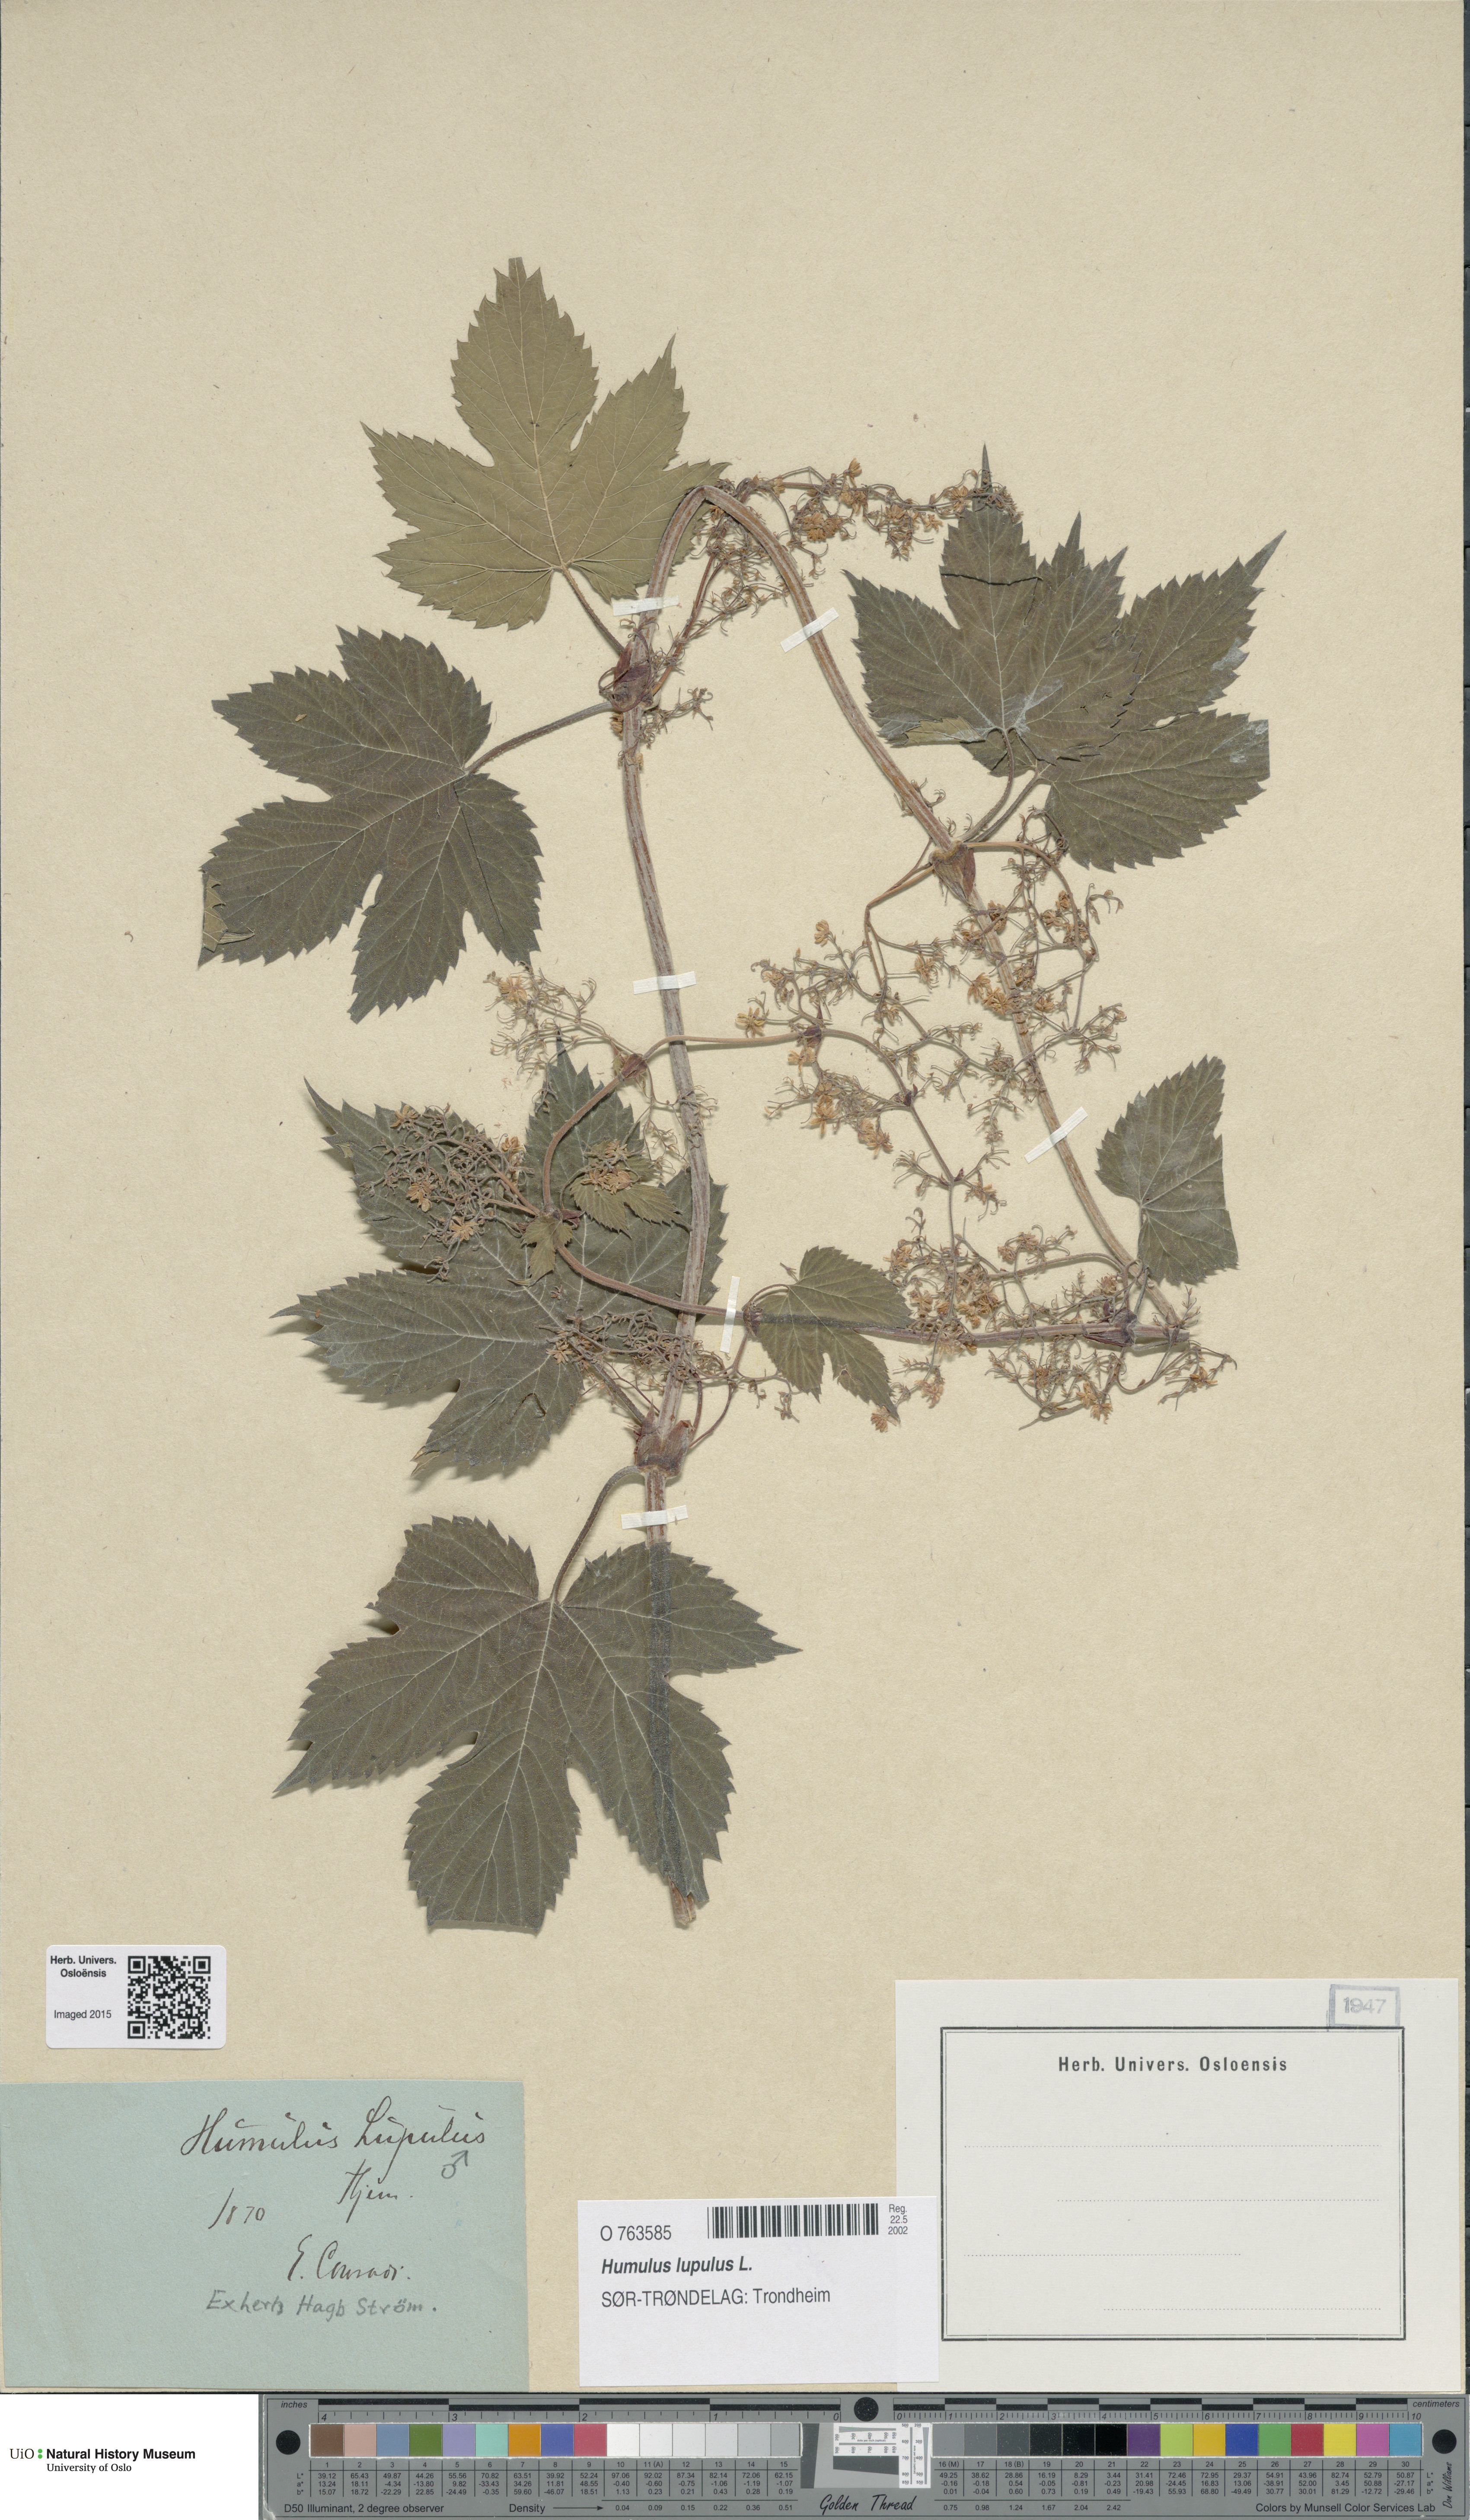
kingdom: Plantae
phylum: Tracheophyta
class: Magnoliopsida
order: Rosales
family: Cannabaceae
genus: Humulus
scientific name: Humulus lupulus
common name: Hop
